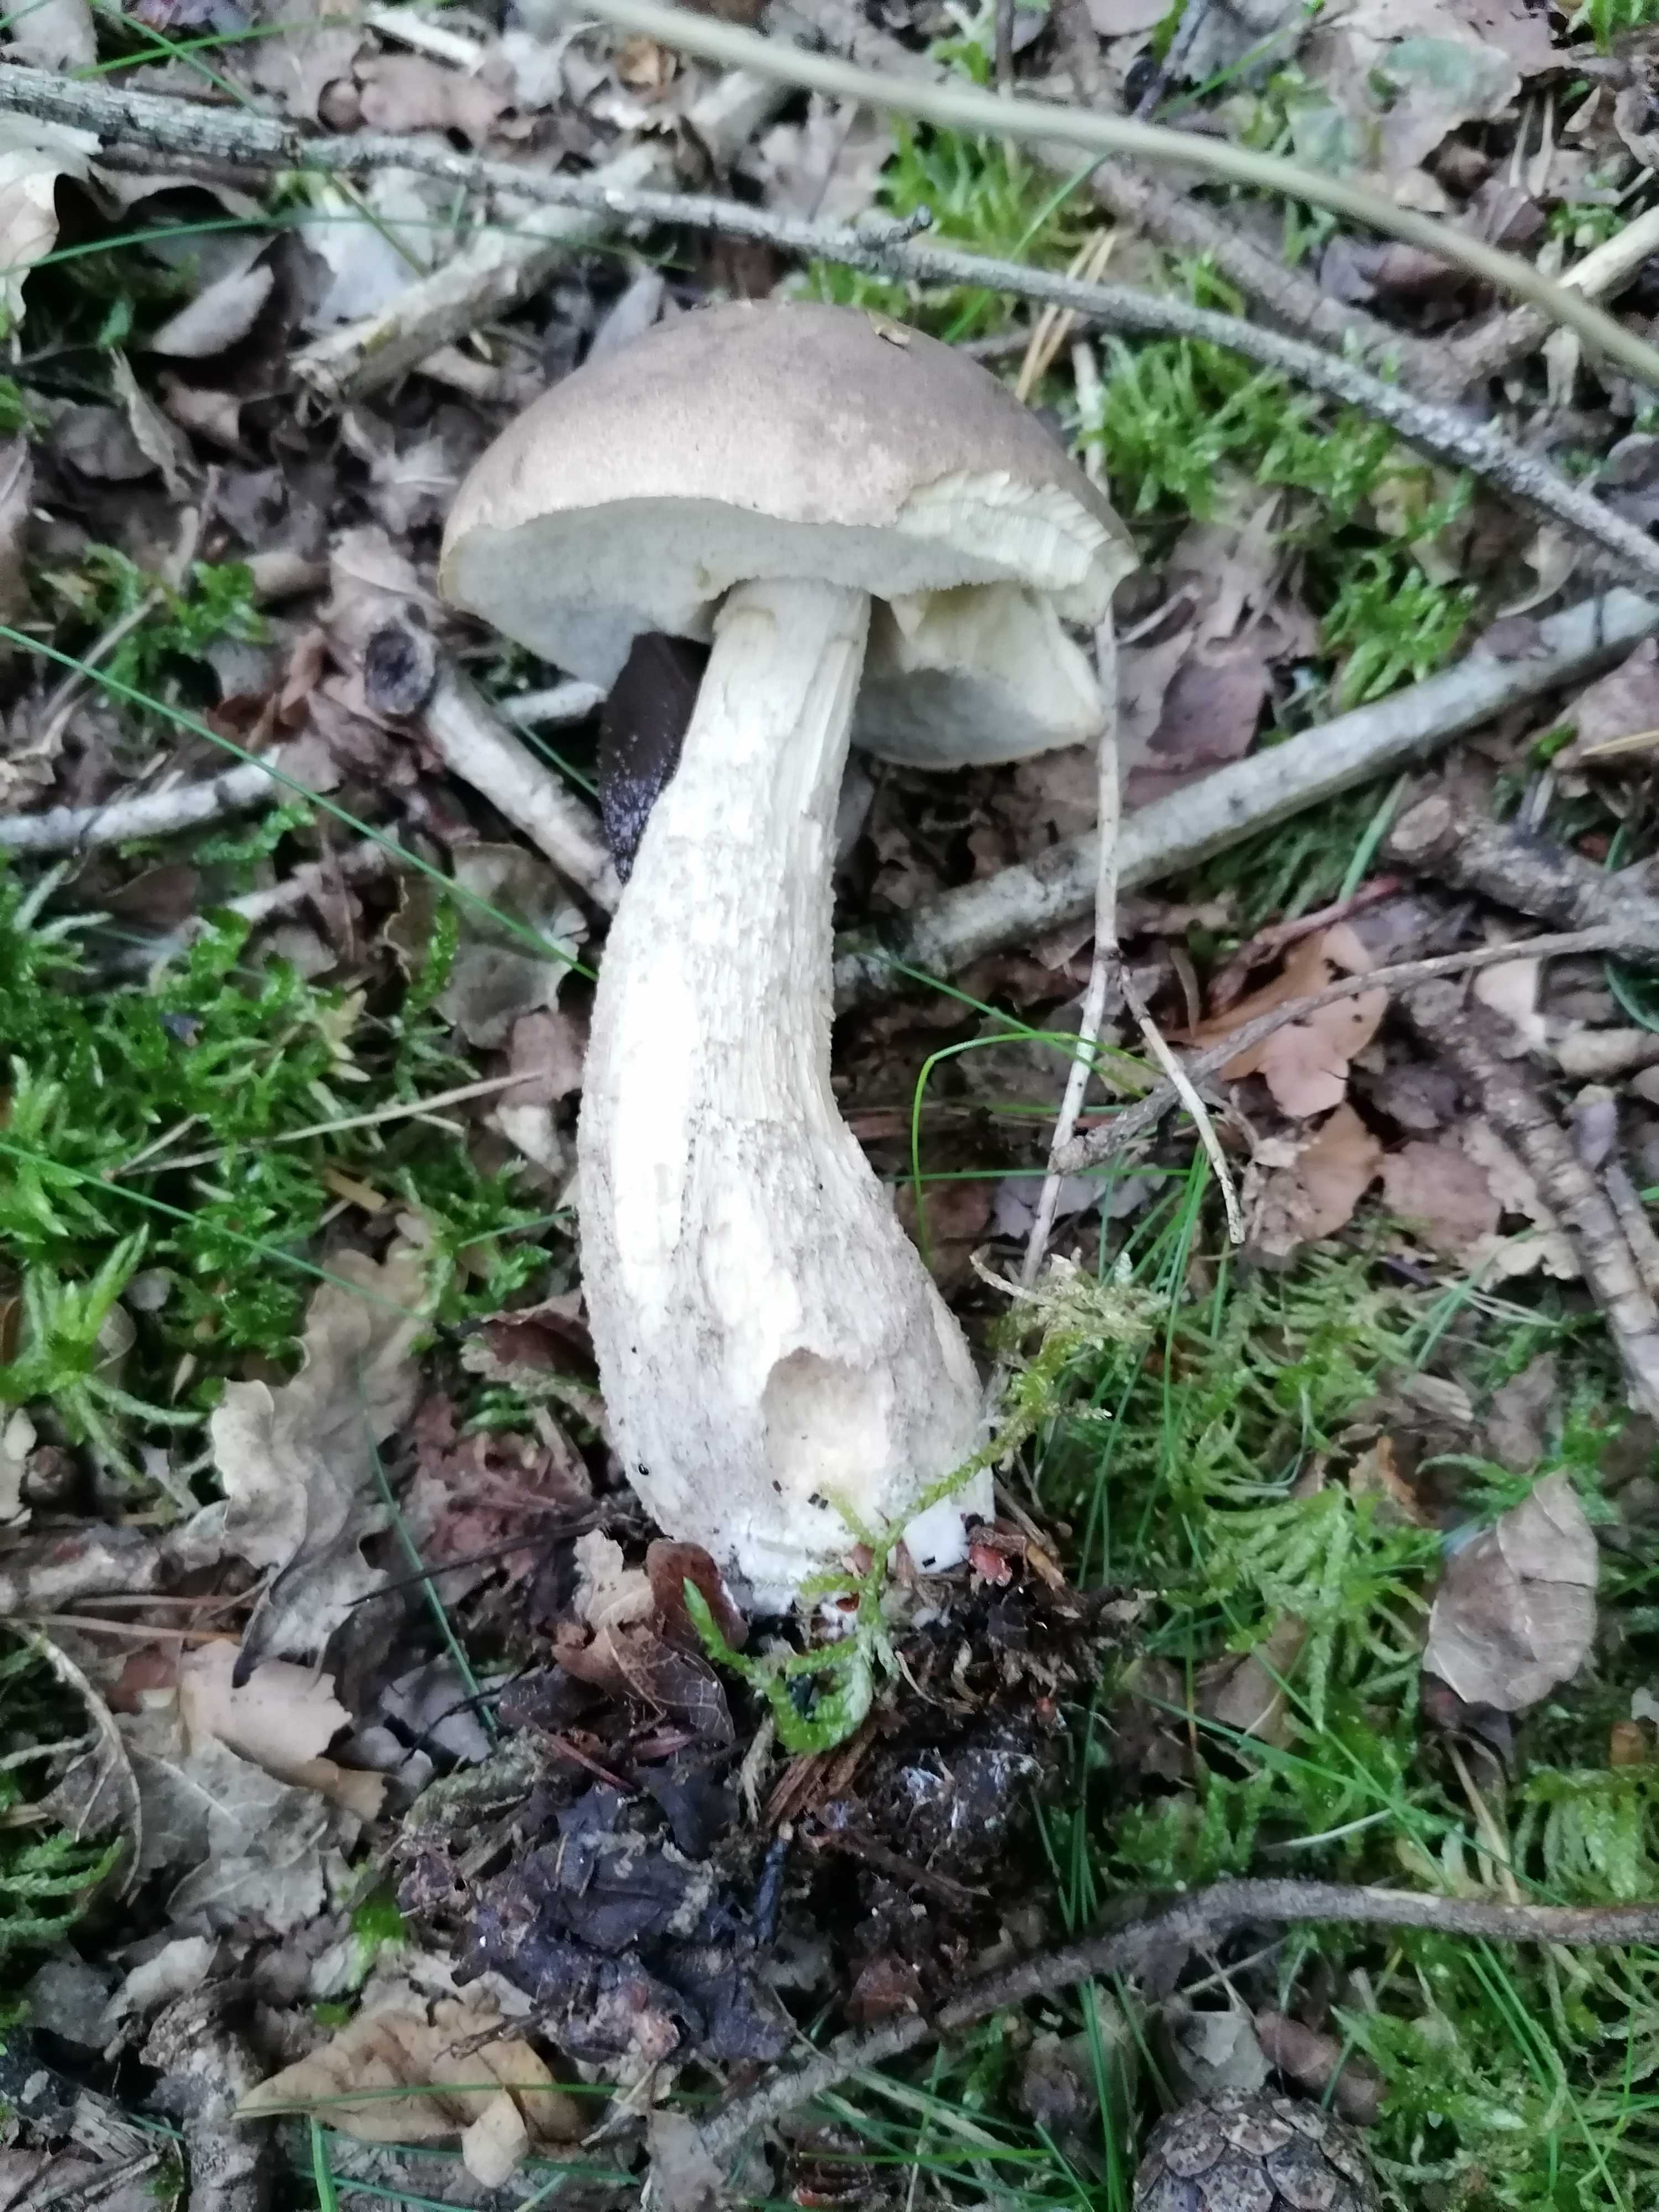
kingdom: Fungi
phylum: Basidiomycota
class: Agaricomycetes
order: Boletales
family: Boletaceae
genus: Leccinum
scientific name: Leccinum scabrum
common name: brun skælrørhat
